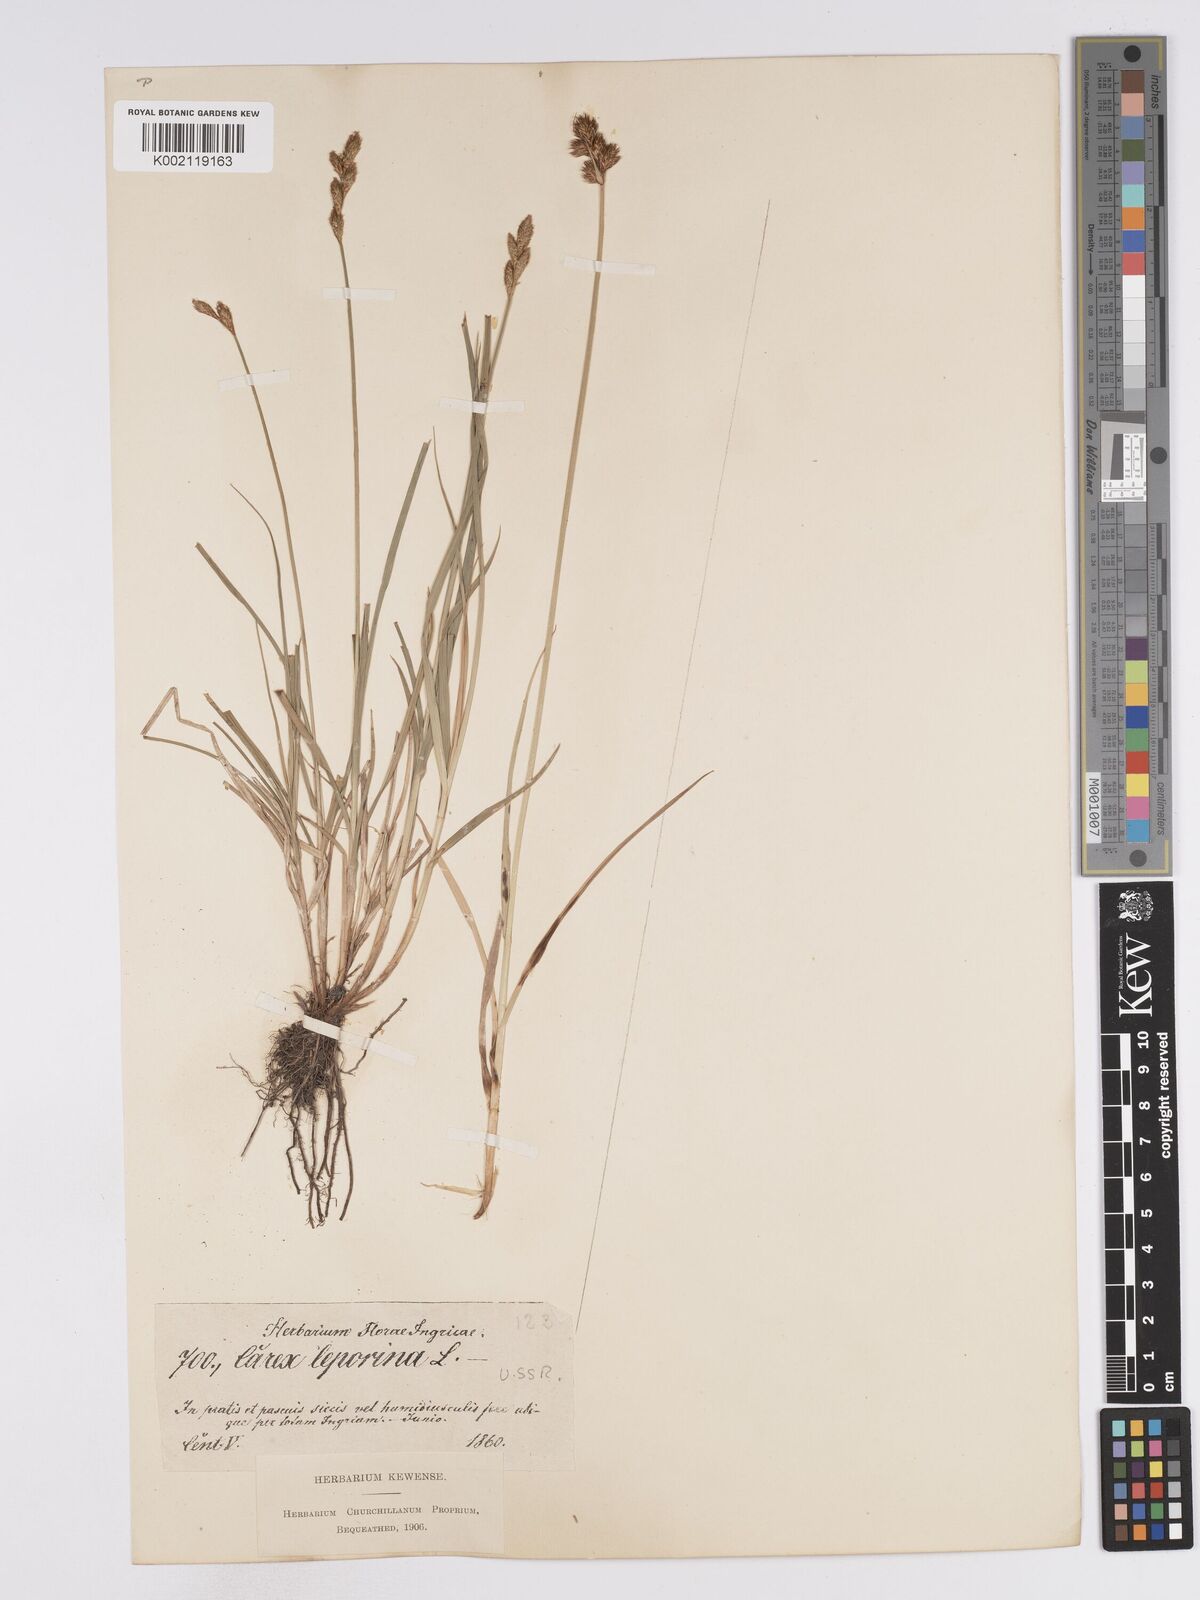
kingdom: Plantae
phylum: Tracheophyta
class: Liliopsida
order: Poales
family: Cyperaceae
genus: Carex
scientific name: Carex leporina
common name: Oval sedge
